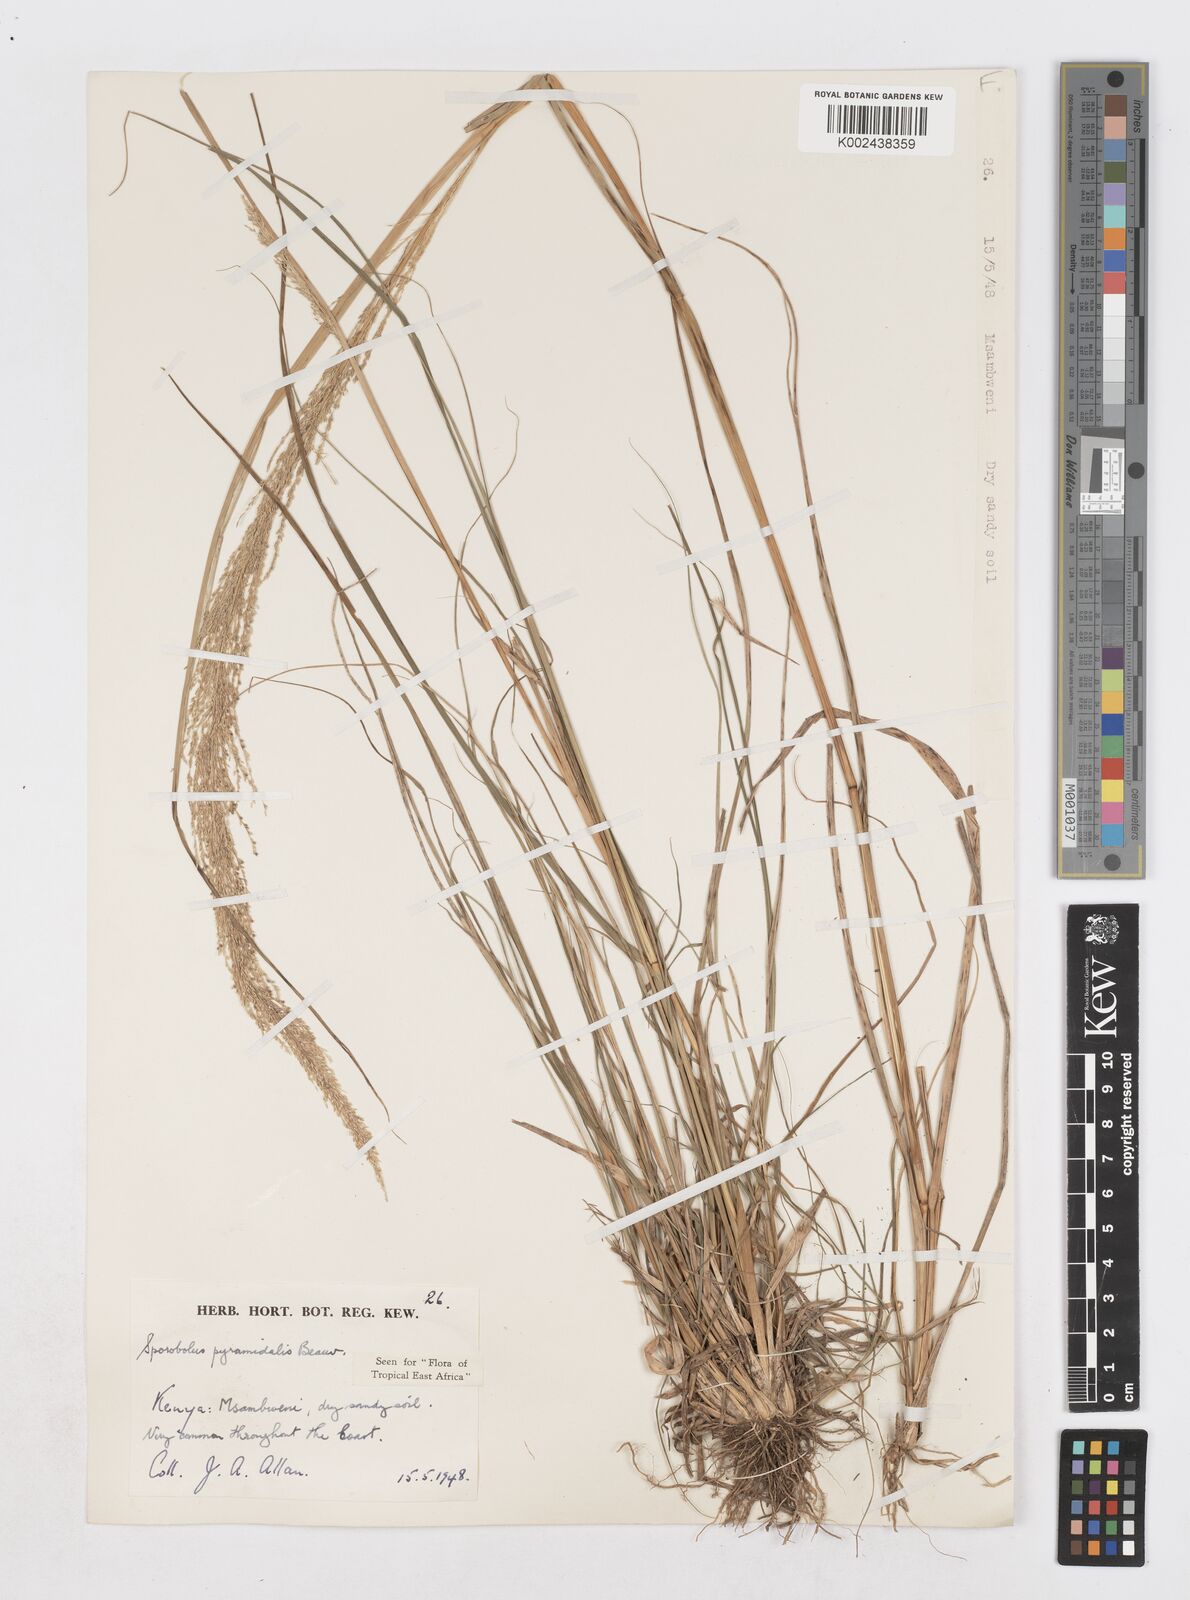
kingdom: Plantae
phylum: Tracheophyta
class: Liliopsida
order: Poales
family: Poaceae
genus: Sporobolus
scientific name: Sporobolus pyramidalis
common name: West indian dropseed
